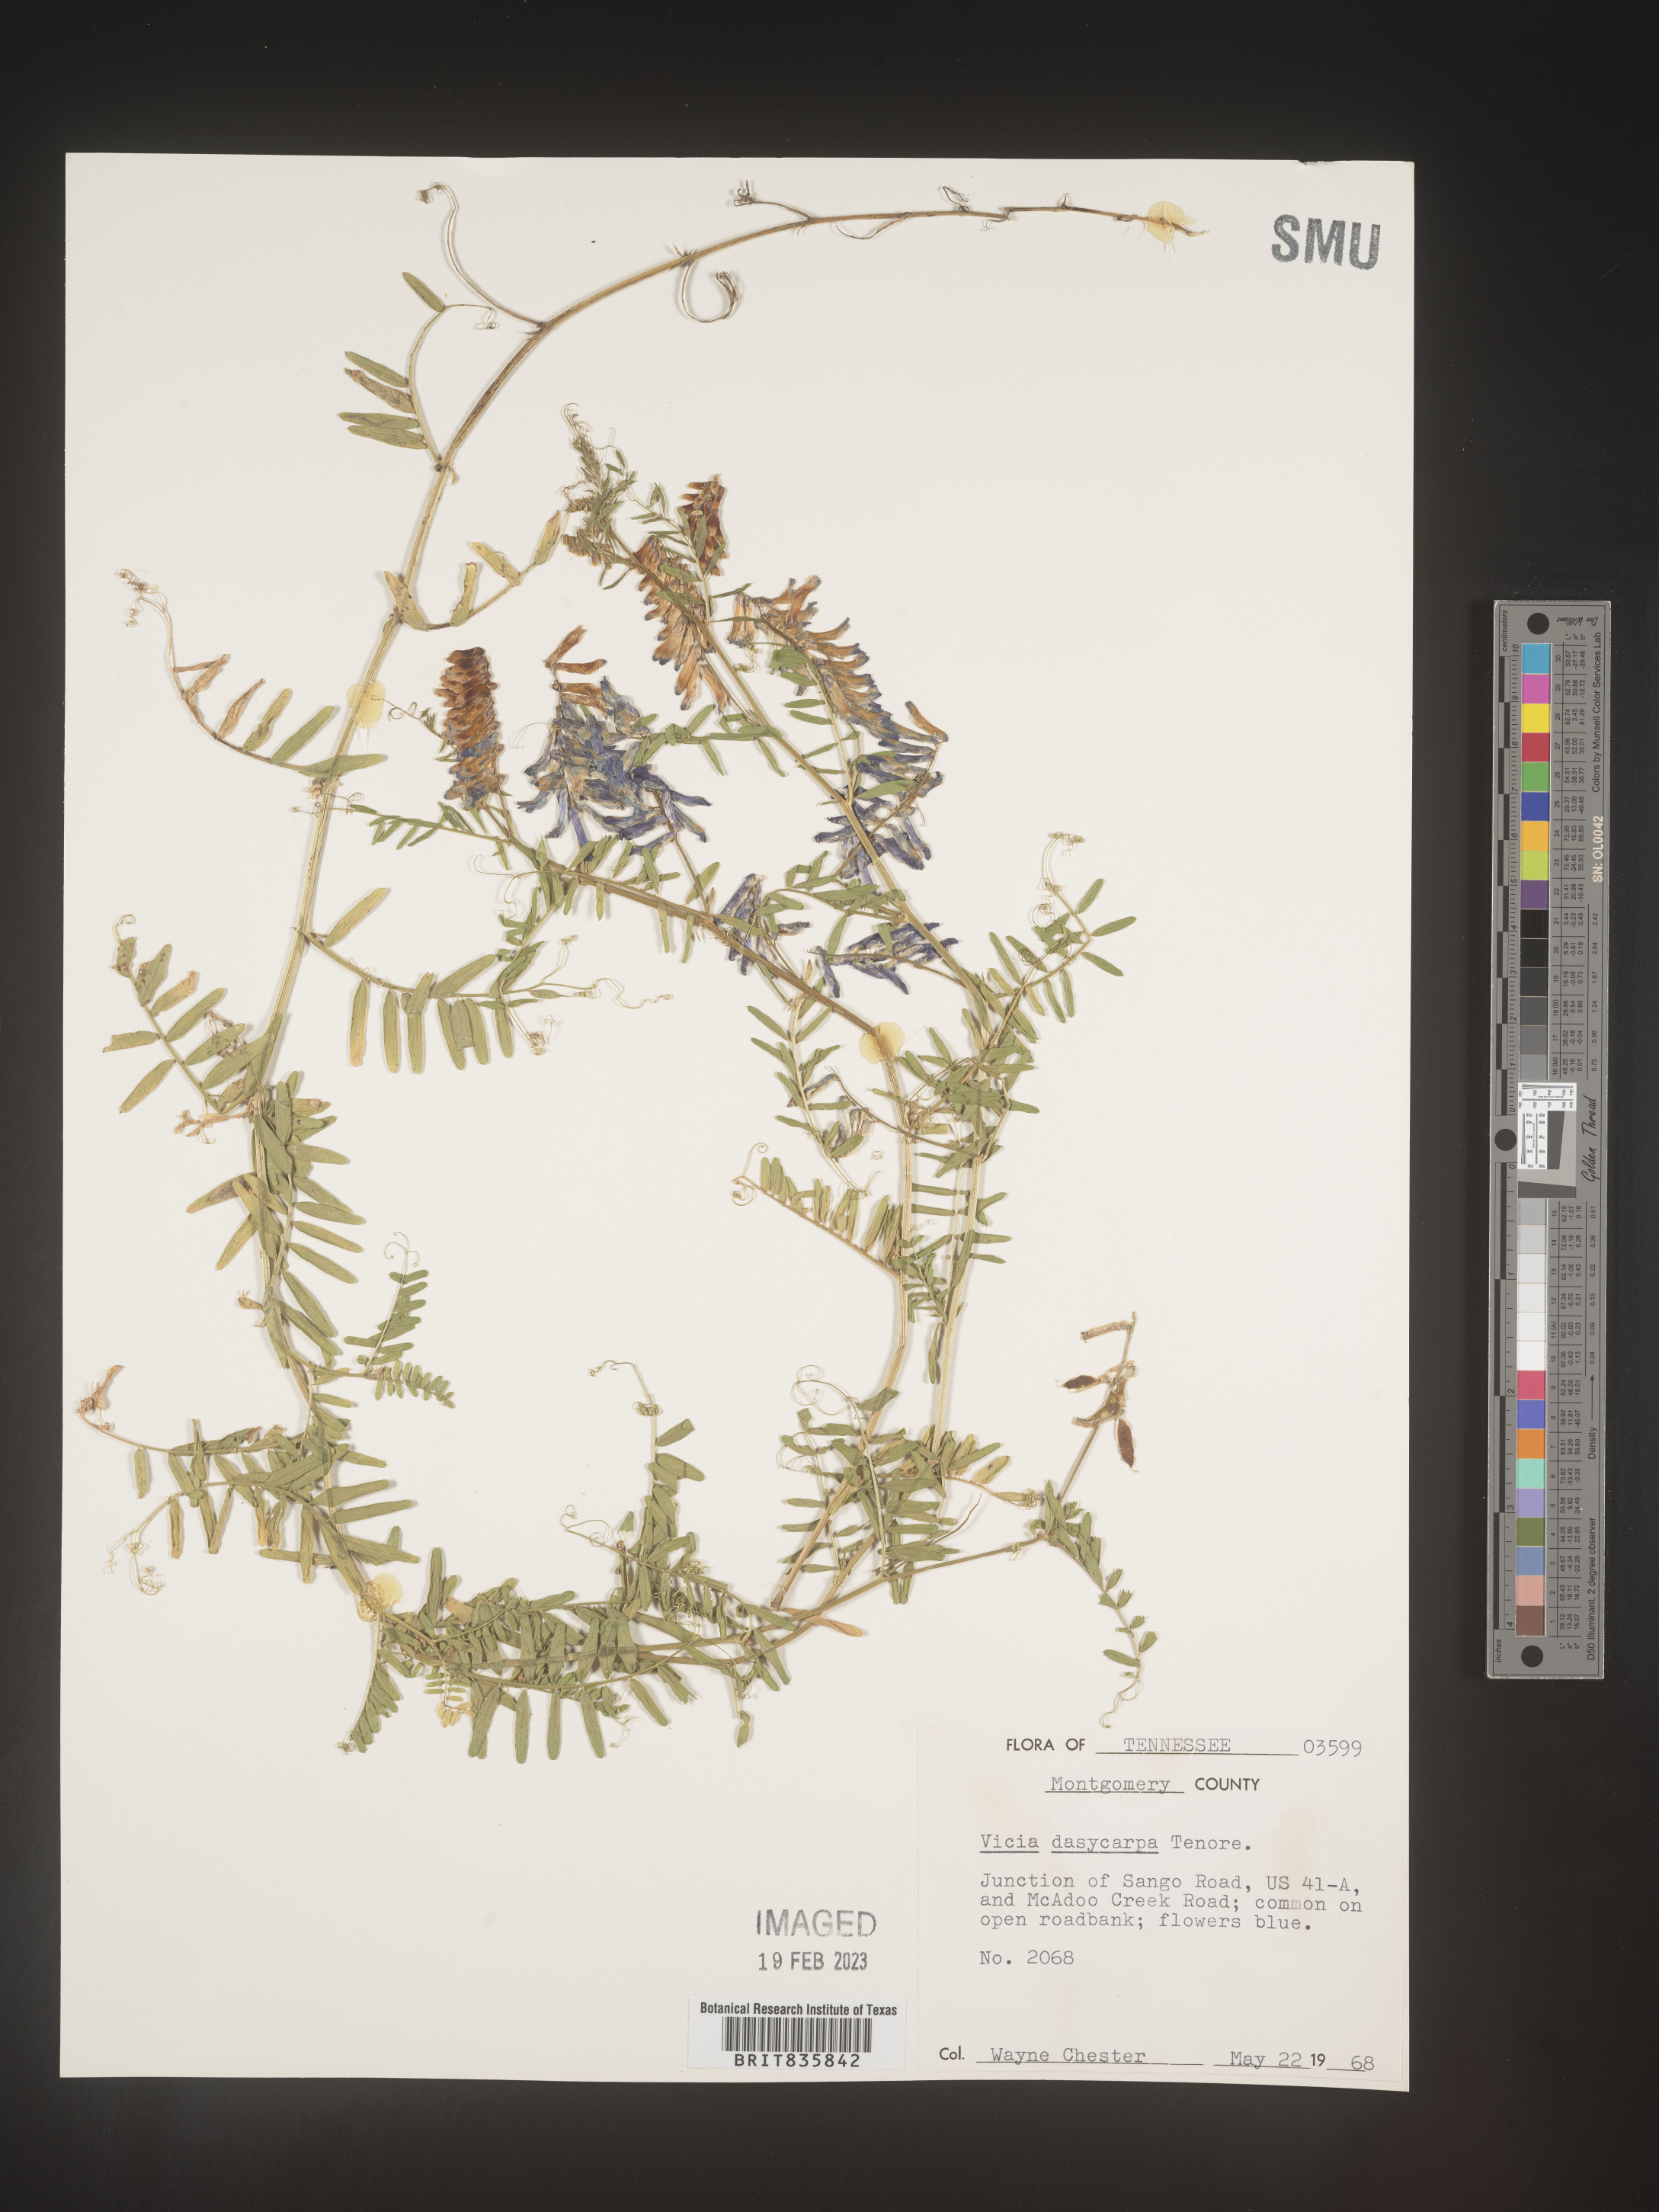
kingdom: Plantae
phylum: Tracheophyta
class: Magnoliopsida
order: Fabales
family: Fabaceae
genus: Vicia
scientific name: Vicia villosa
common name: Fodder vetch
